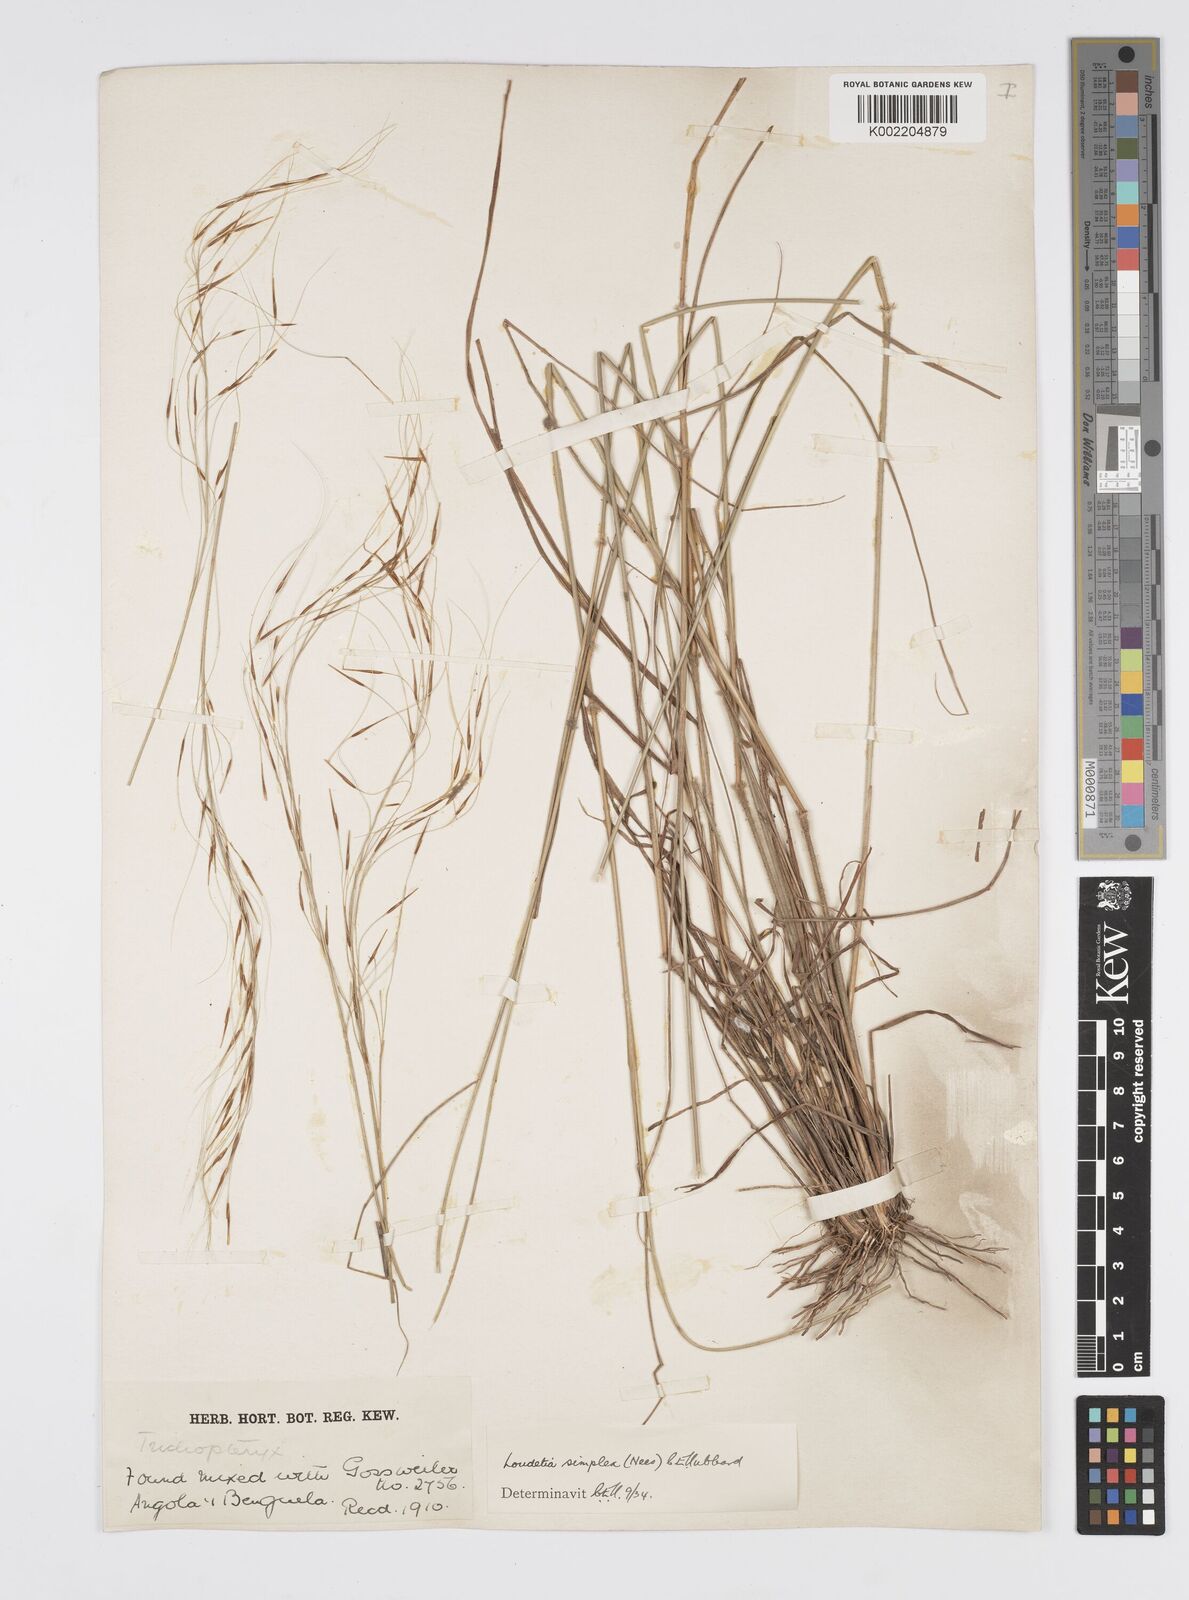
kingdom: Plantae
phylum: Tracheophyta
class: Liliopsida
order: Poales
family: Poaceae
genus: Loudetia
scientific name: Loudetia simplex
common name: Common russet grass
